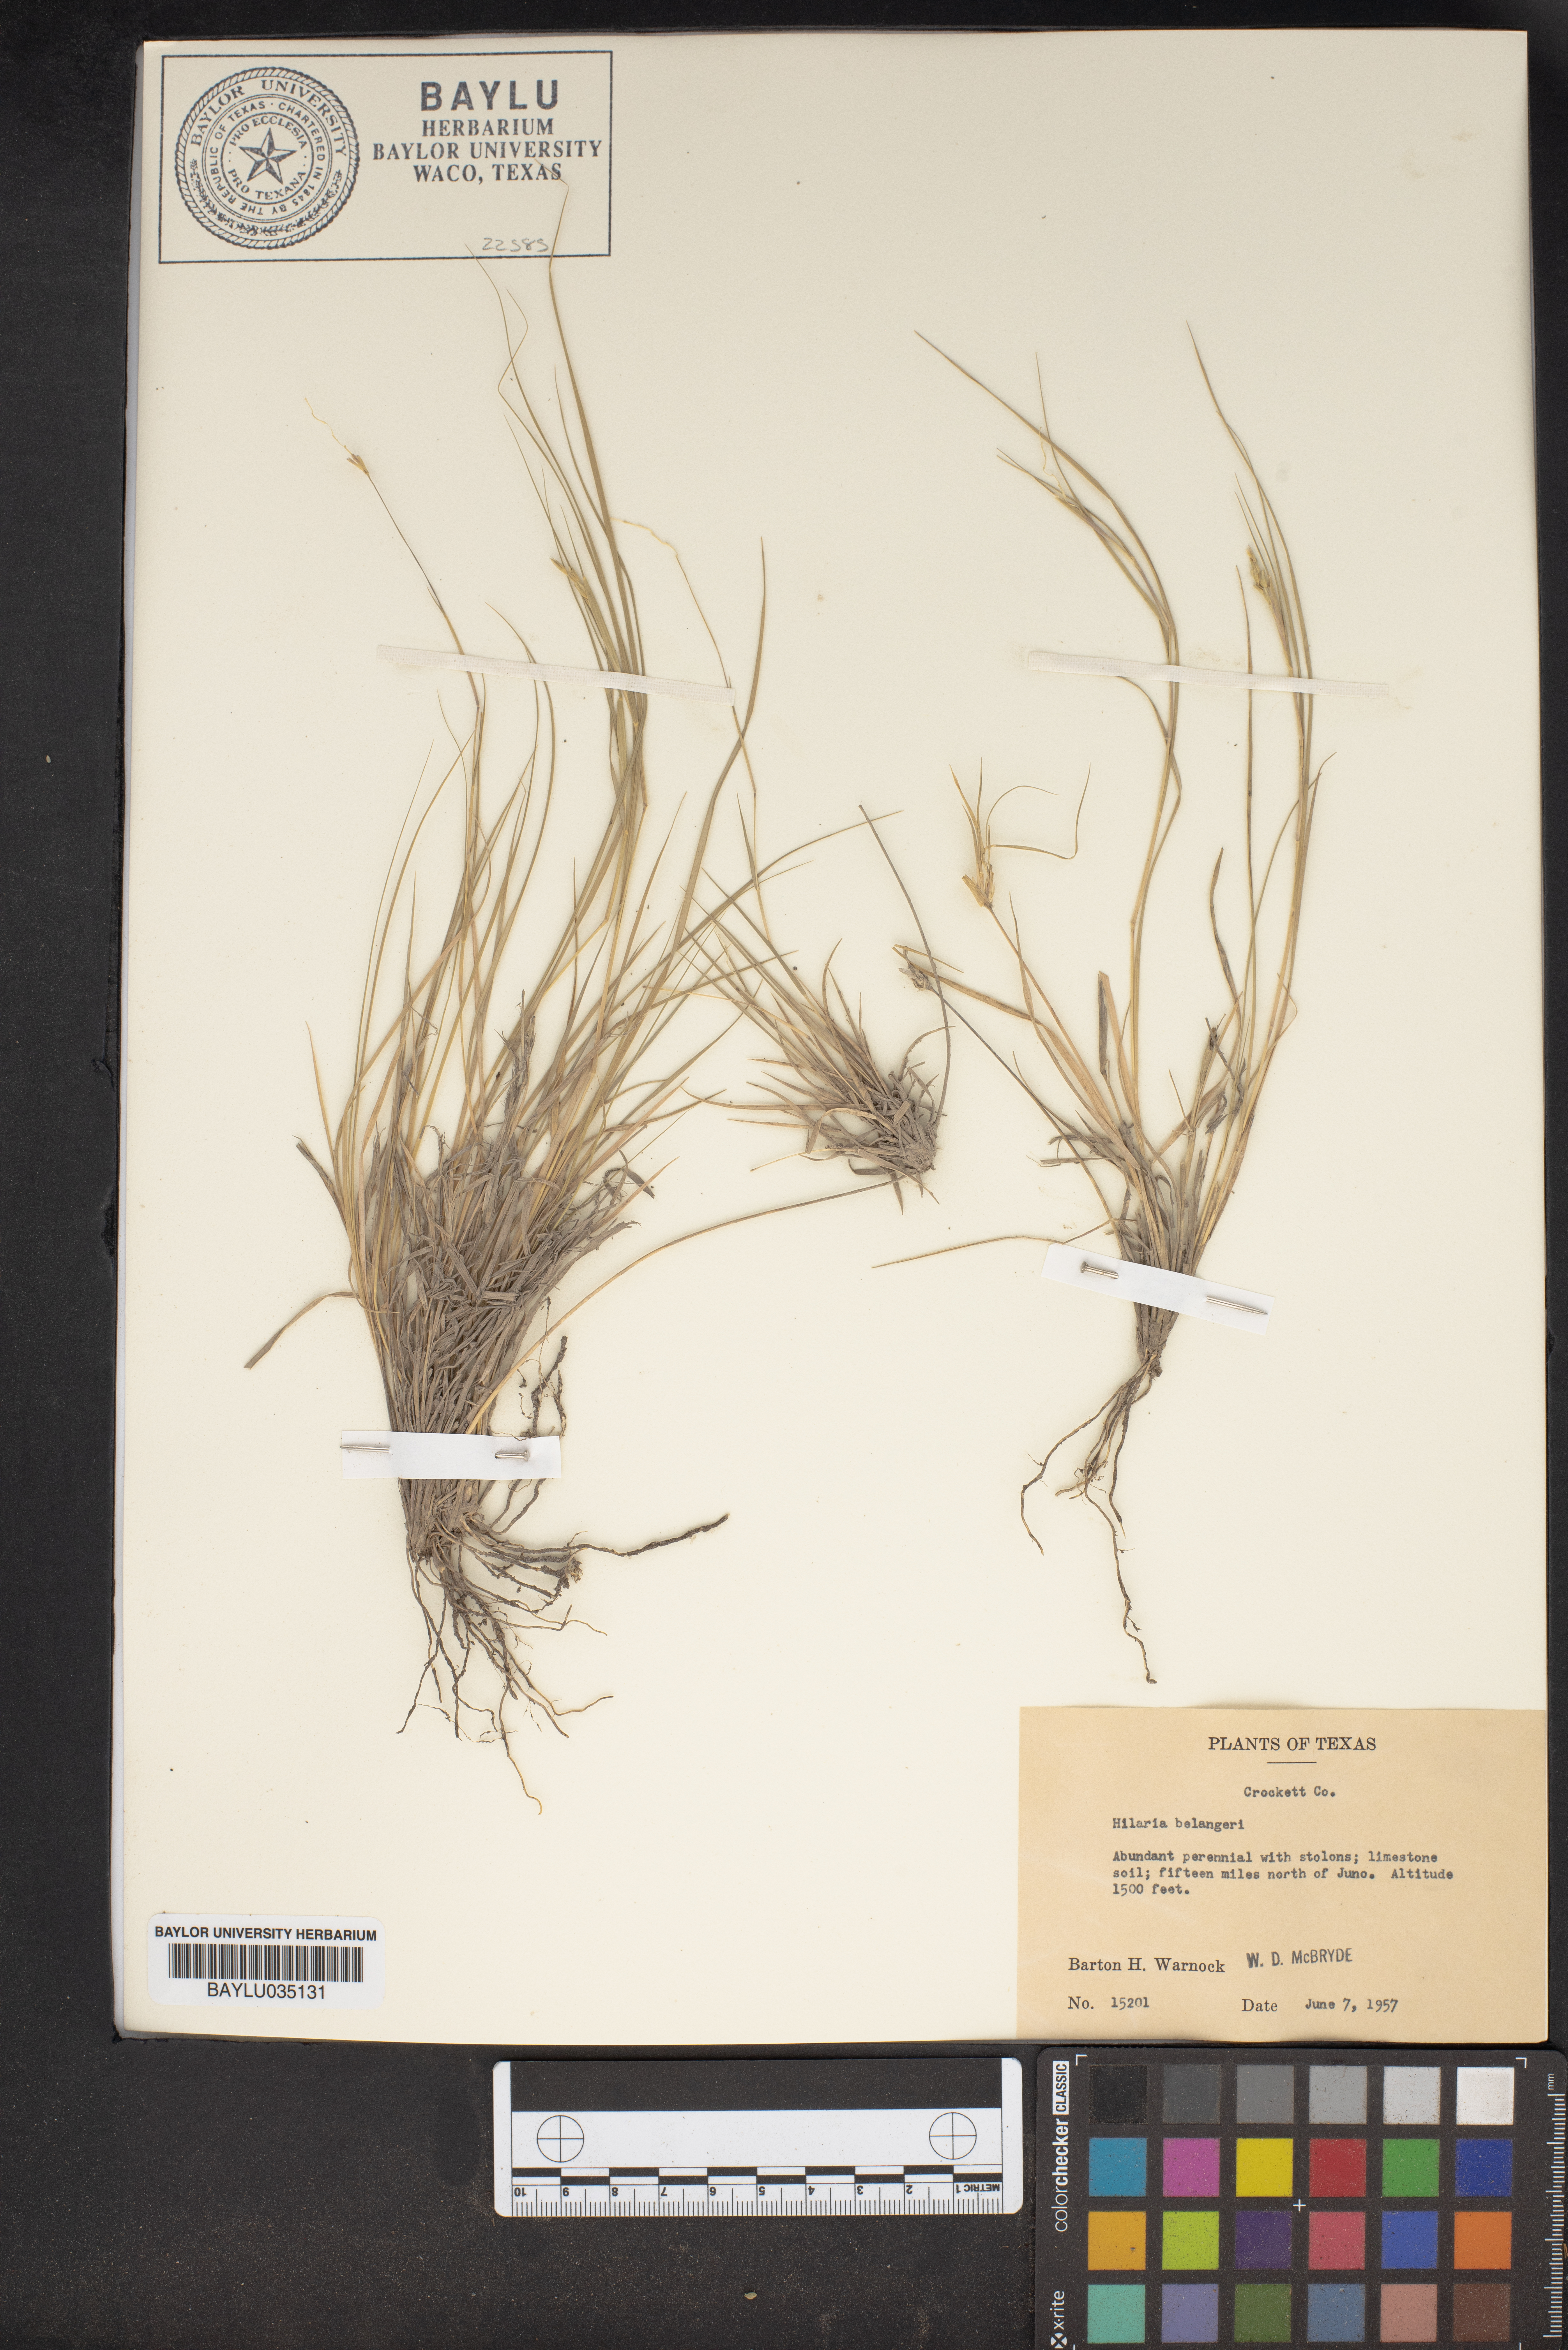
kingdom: Plantae
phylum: Tracheophyta
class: Liliopsida
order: Poales
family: Poaceae
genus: Hilaria
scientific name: Hilaria belangeri
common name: Curly-mesquite
